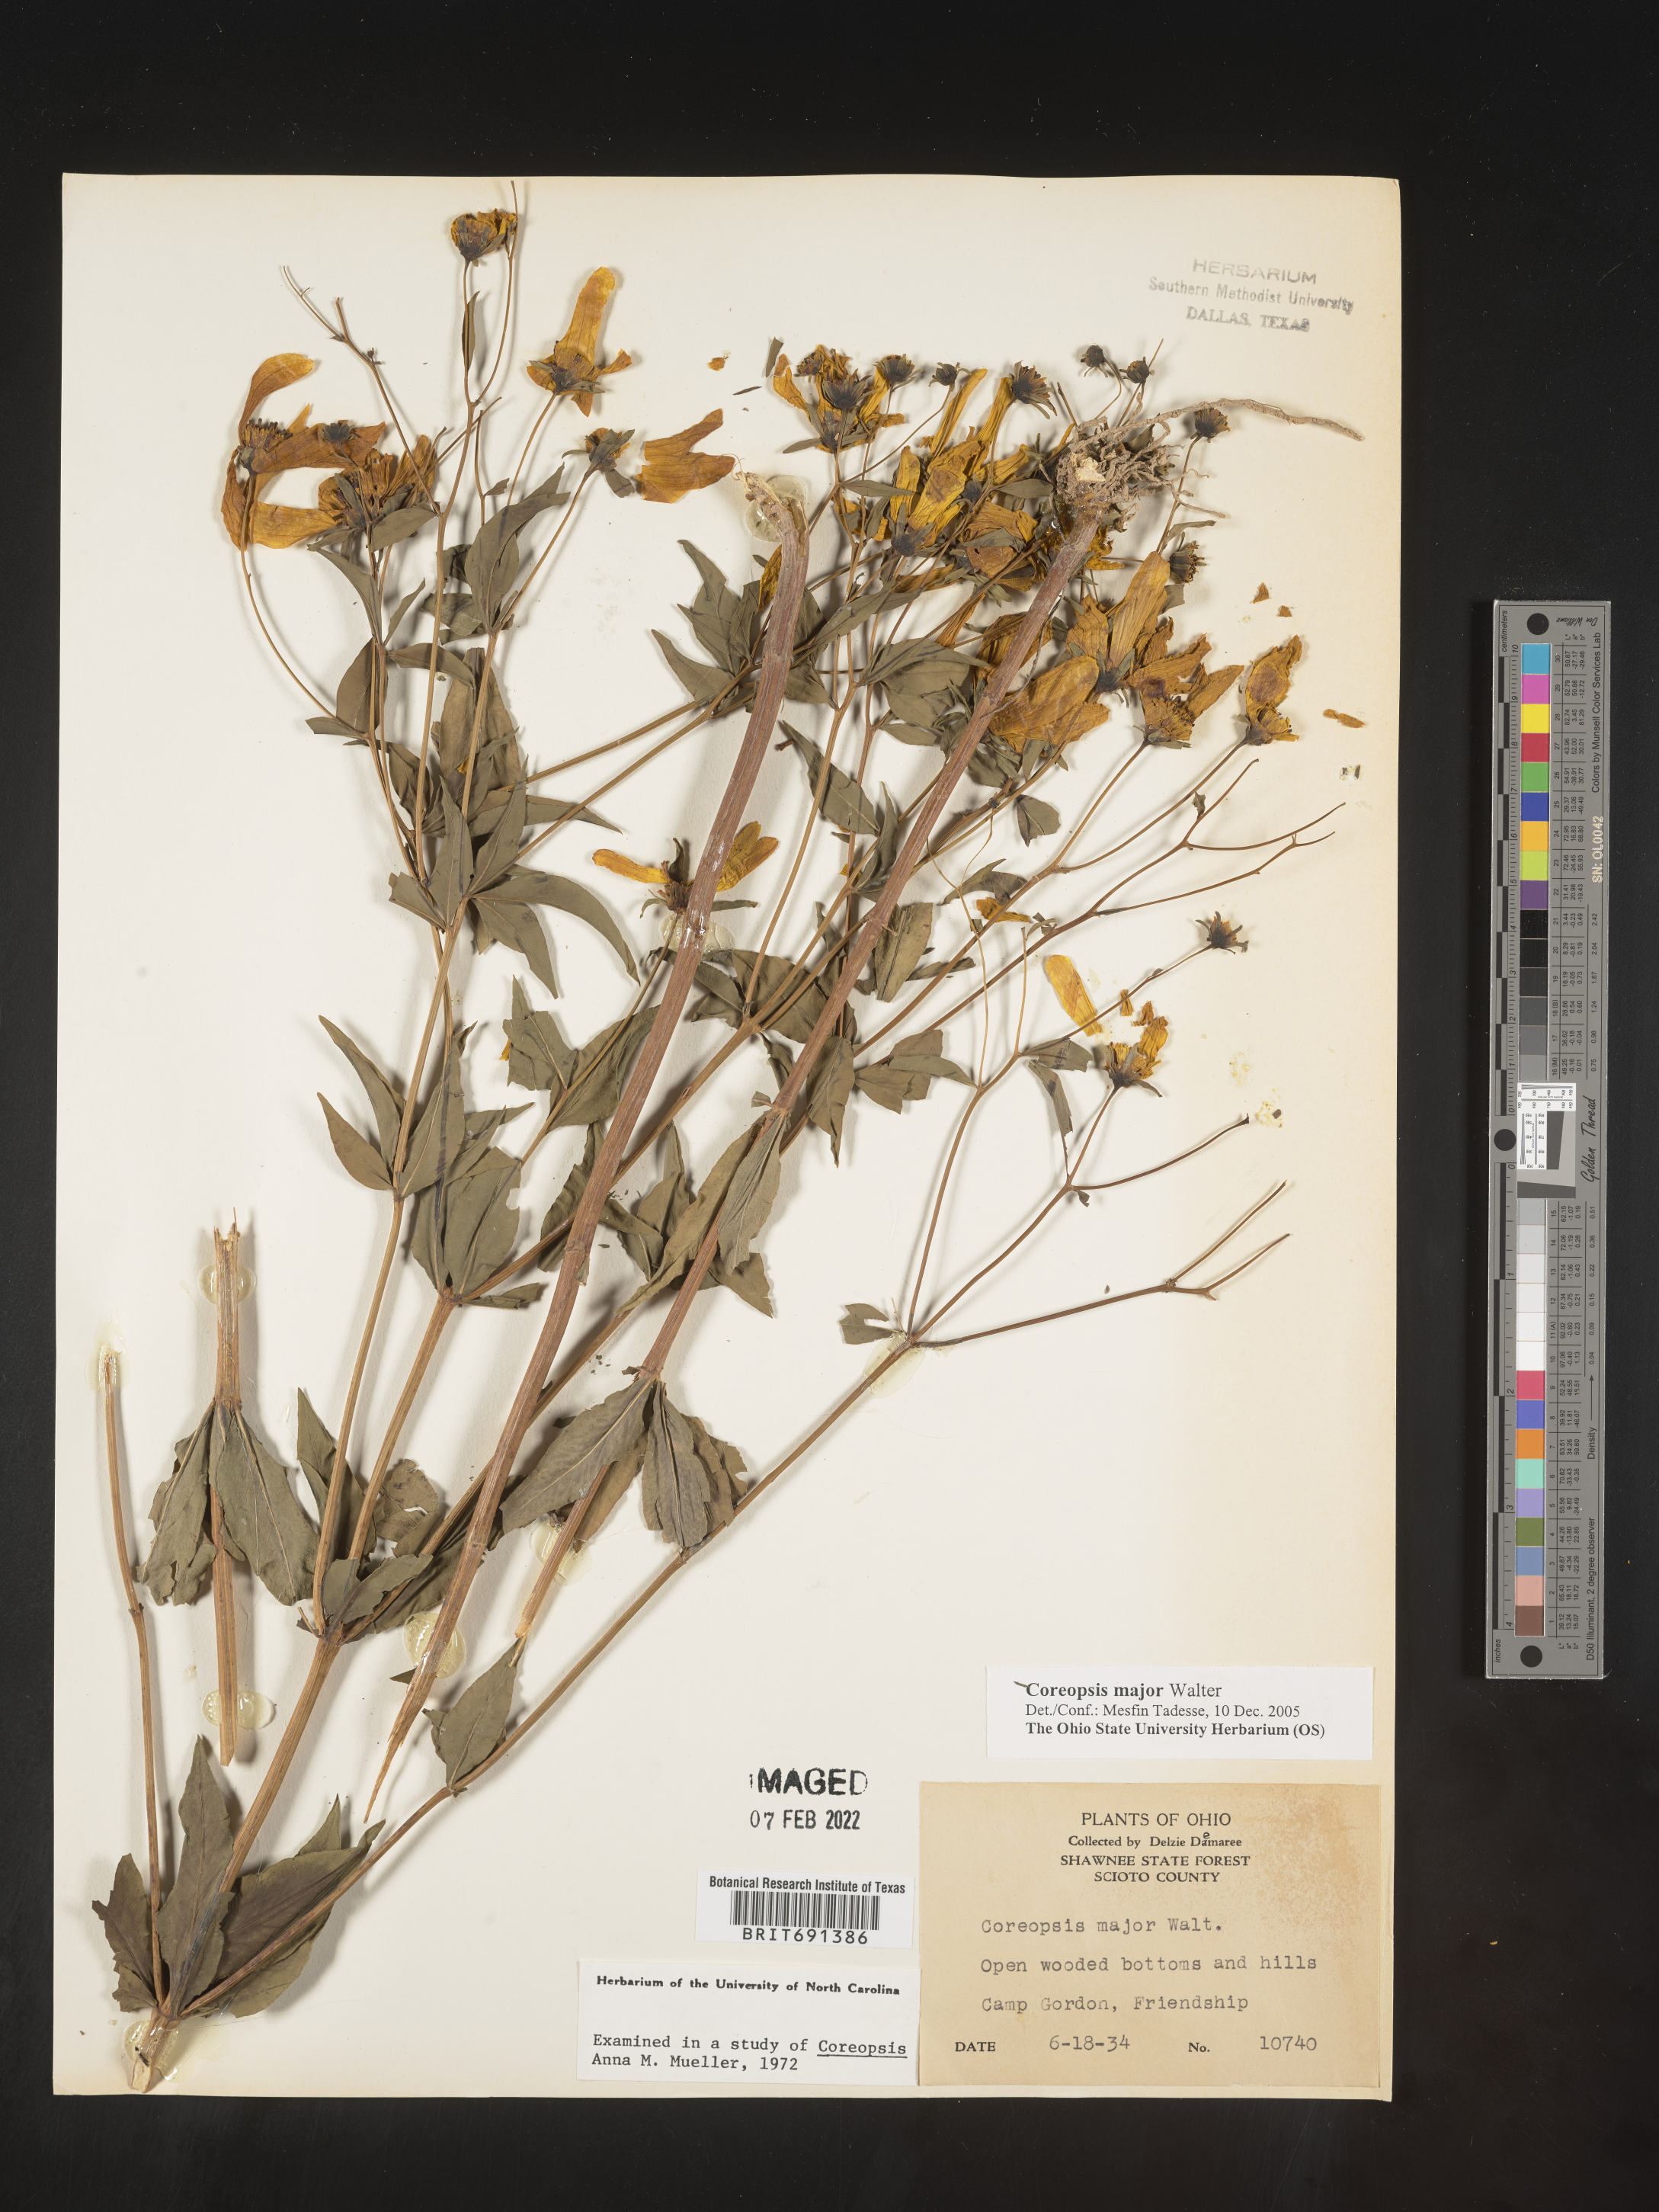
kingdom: Plantae
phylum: Tracheophyta
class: Magnoliopsida
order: Asterales
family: Asteraceae
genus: Coreopsis
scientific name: Coreopsis major
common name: Forest tickseed
